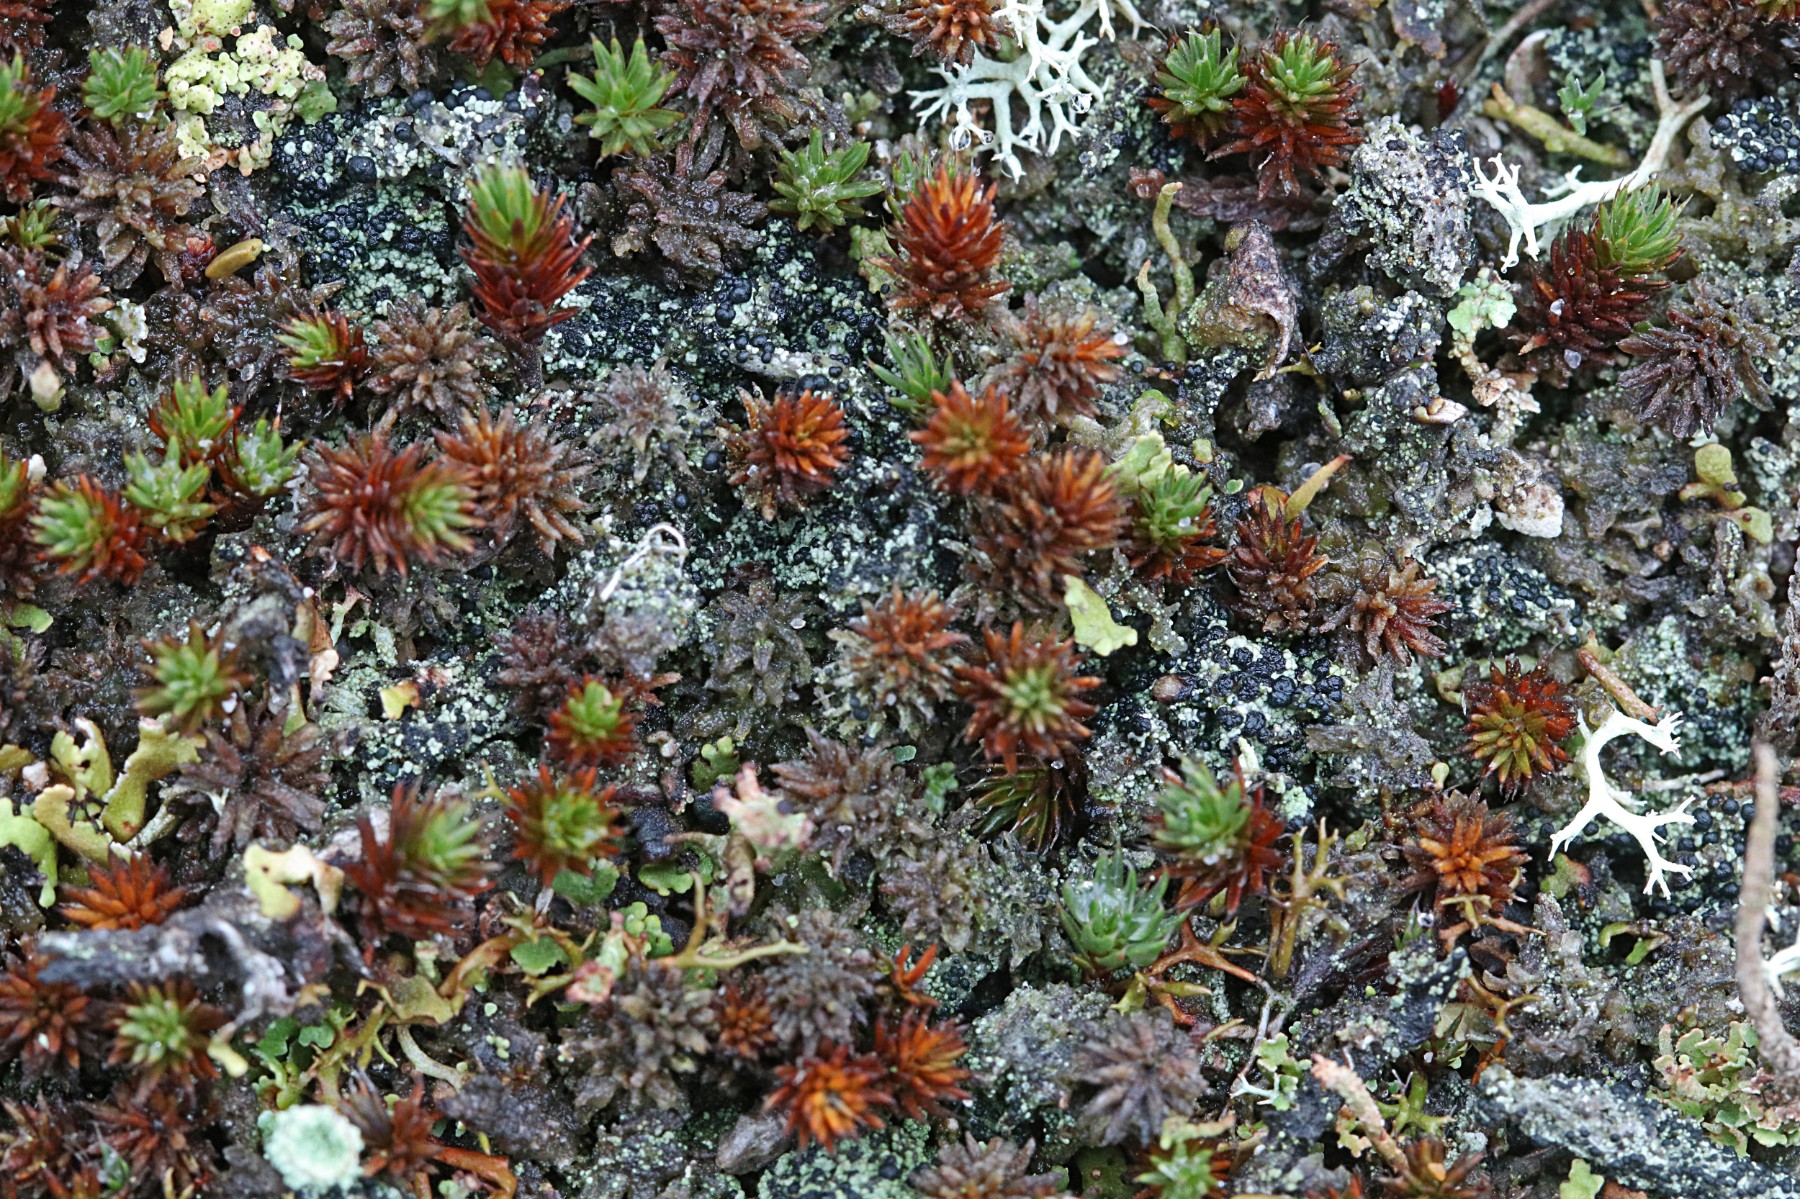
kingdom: Fungi
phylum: Ascomycota
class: Lecanoromycetes
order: Lecanorales
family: Byssolomataceae
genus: Micarea
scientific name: Micarea lignaria
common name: tørve-knaplav
